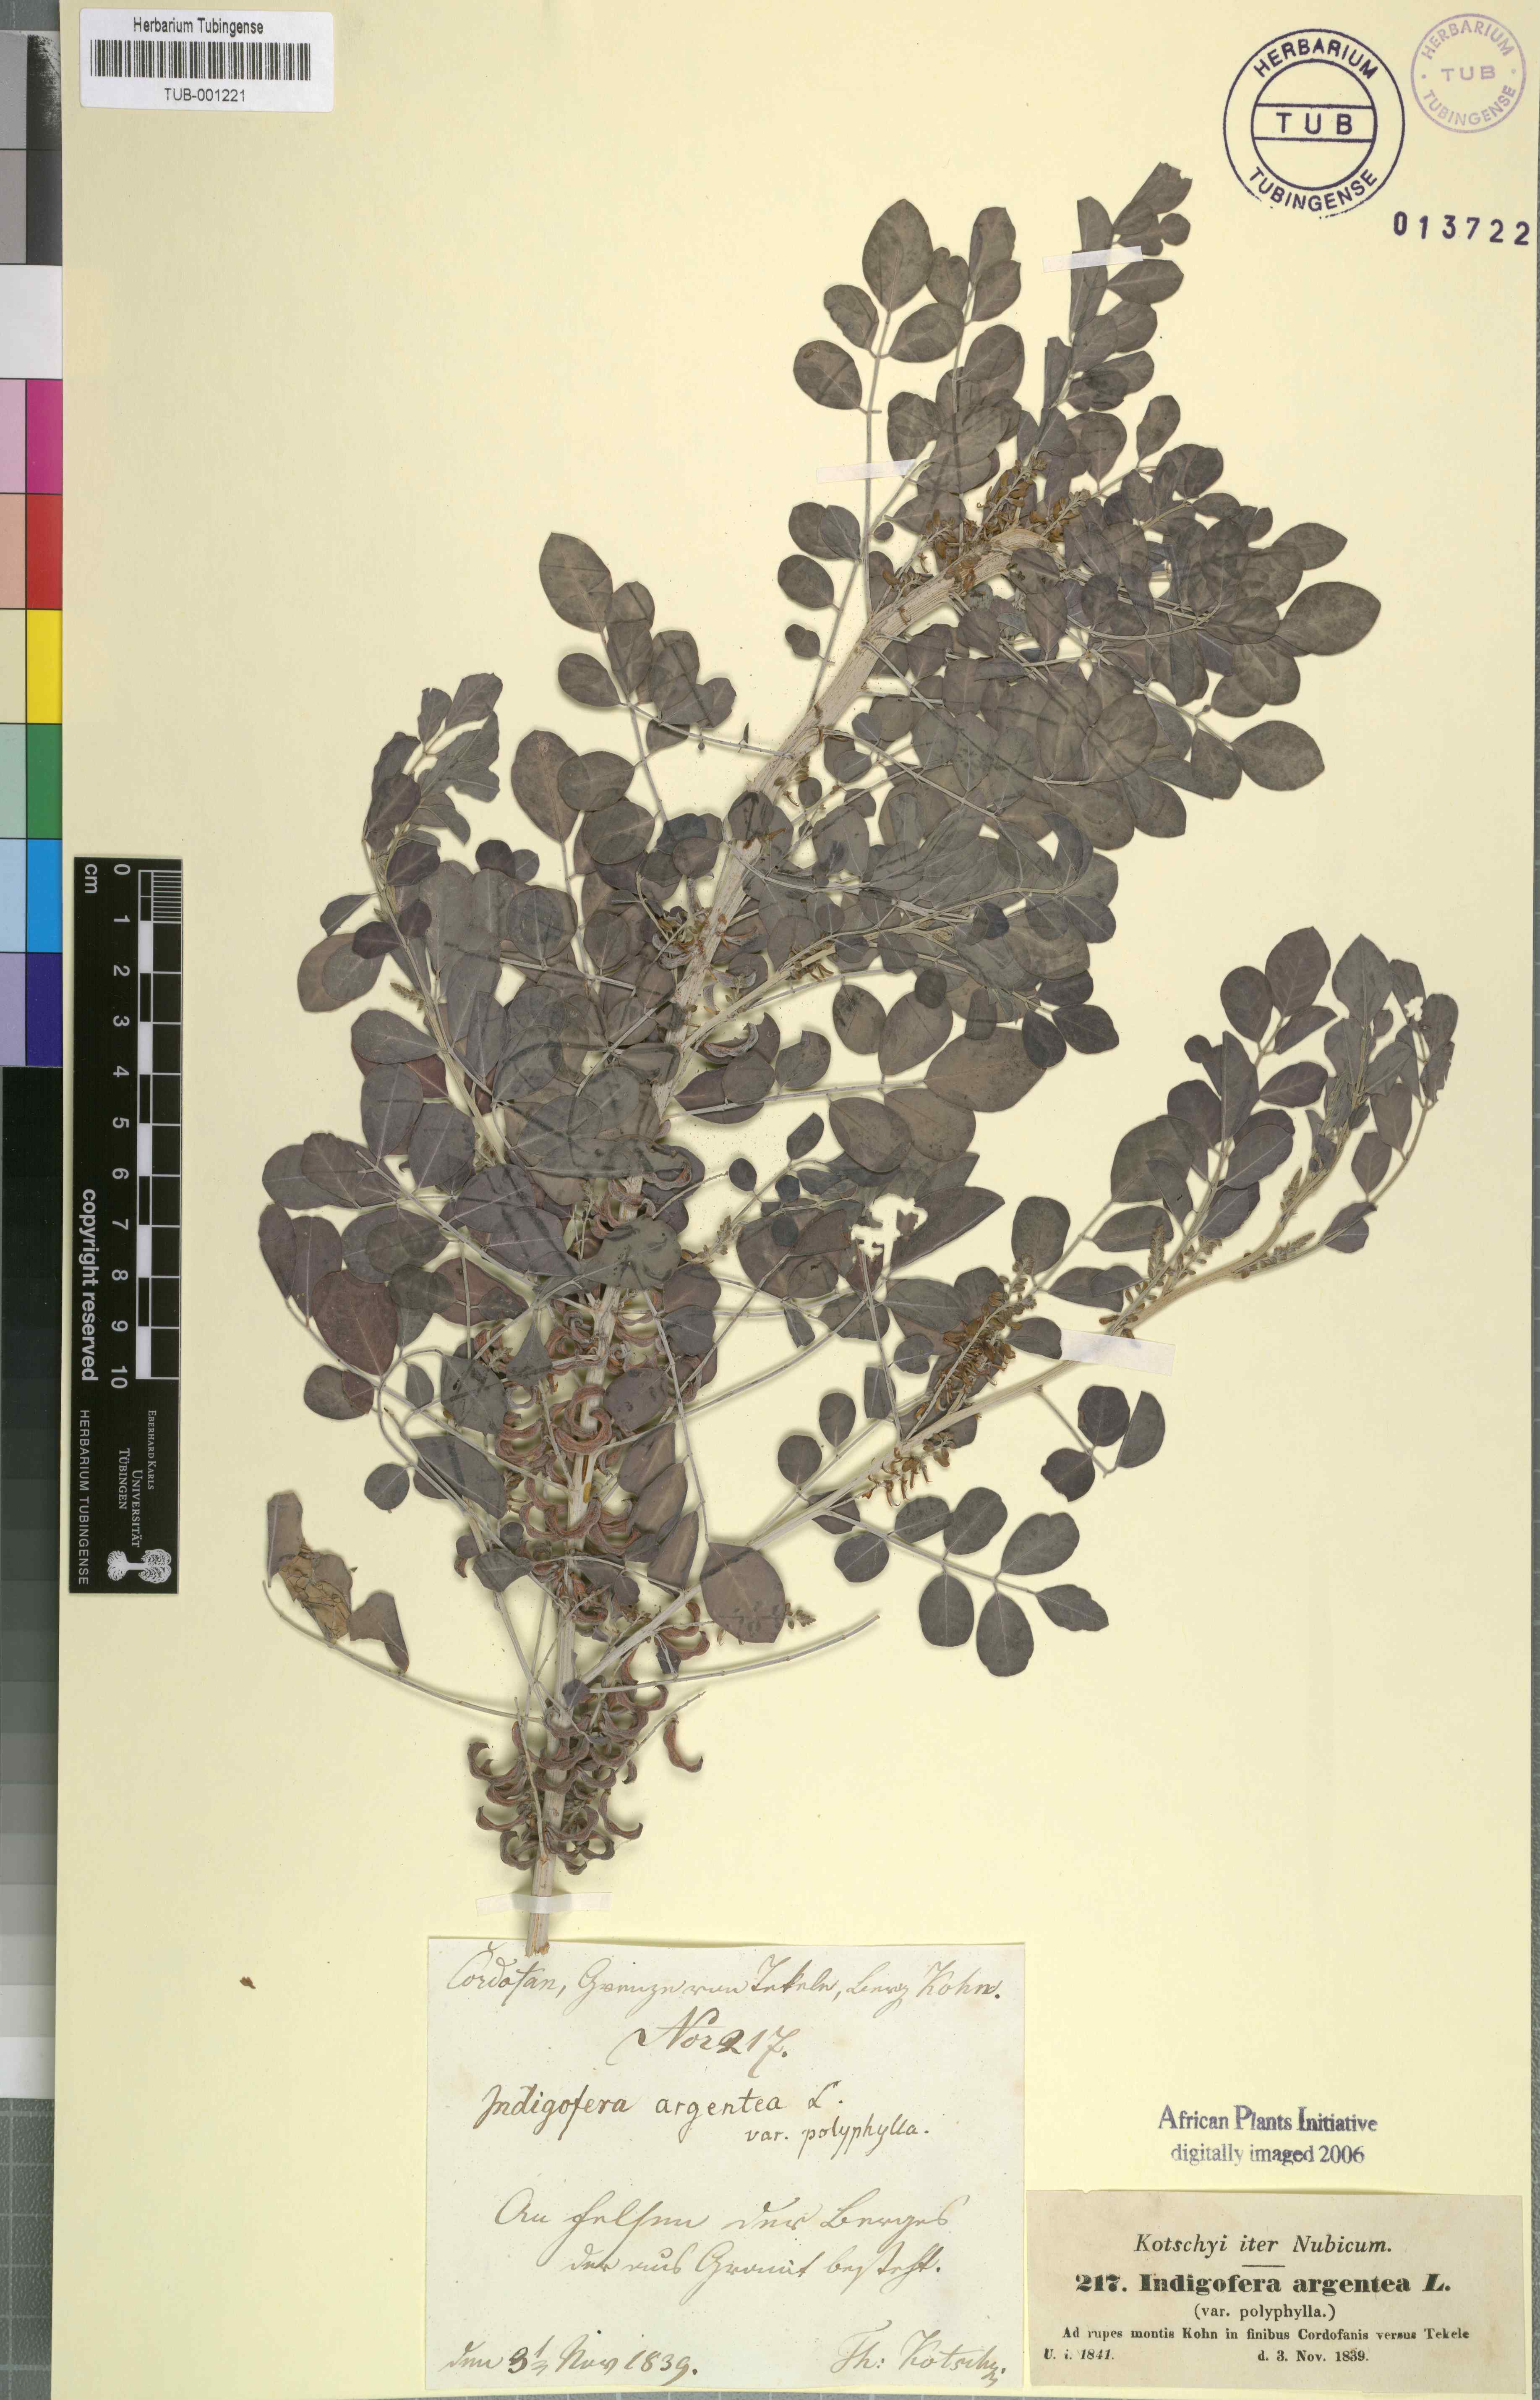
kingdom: Plantae
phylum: Tracheophyta
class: Magnoliopsida
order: Fabales
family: Fabaceae
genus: Indigofera
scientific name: Indigofera argentea
